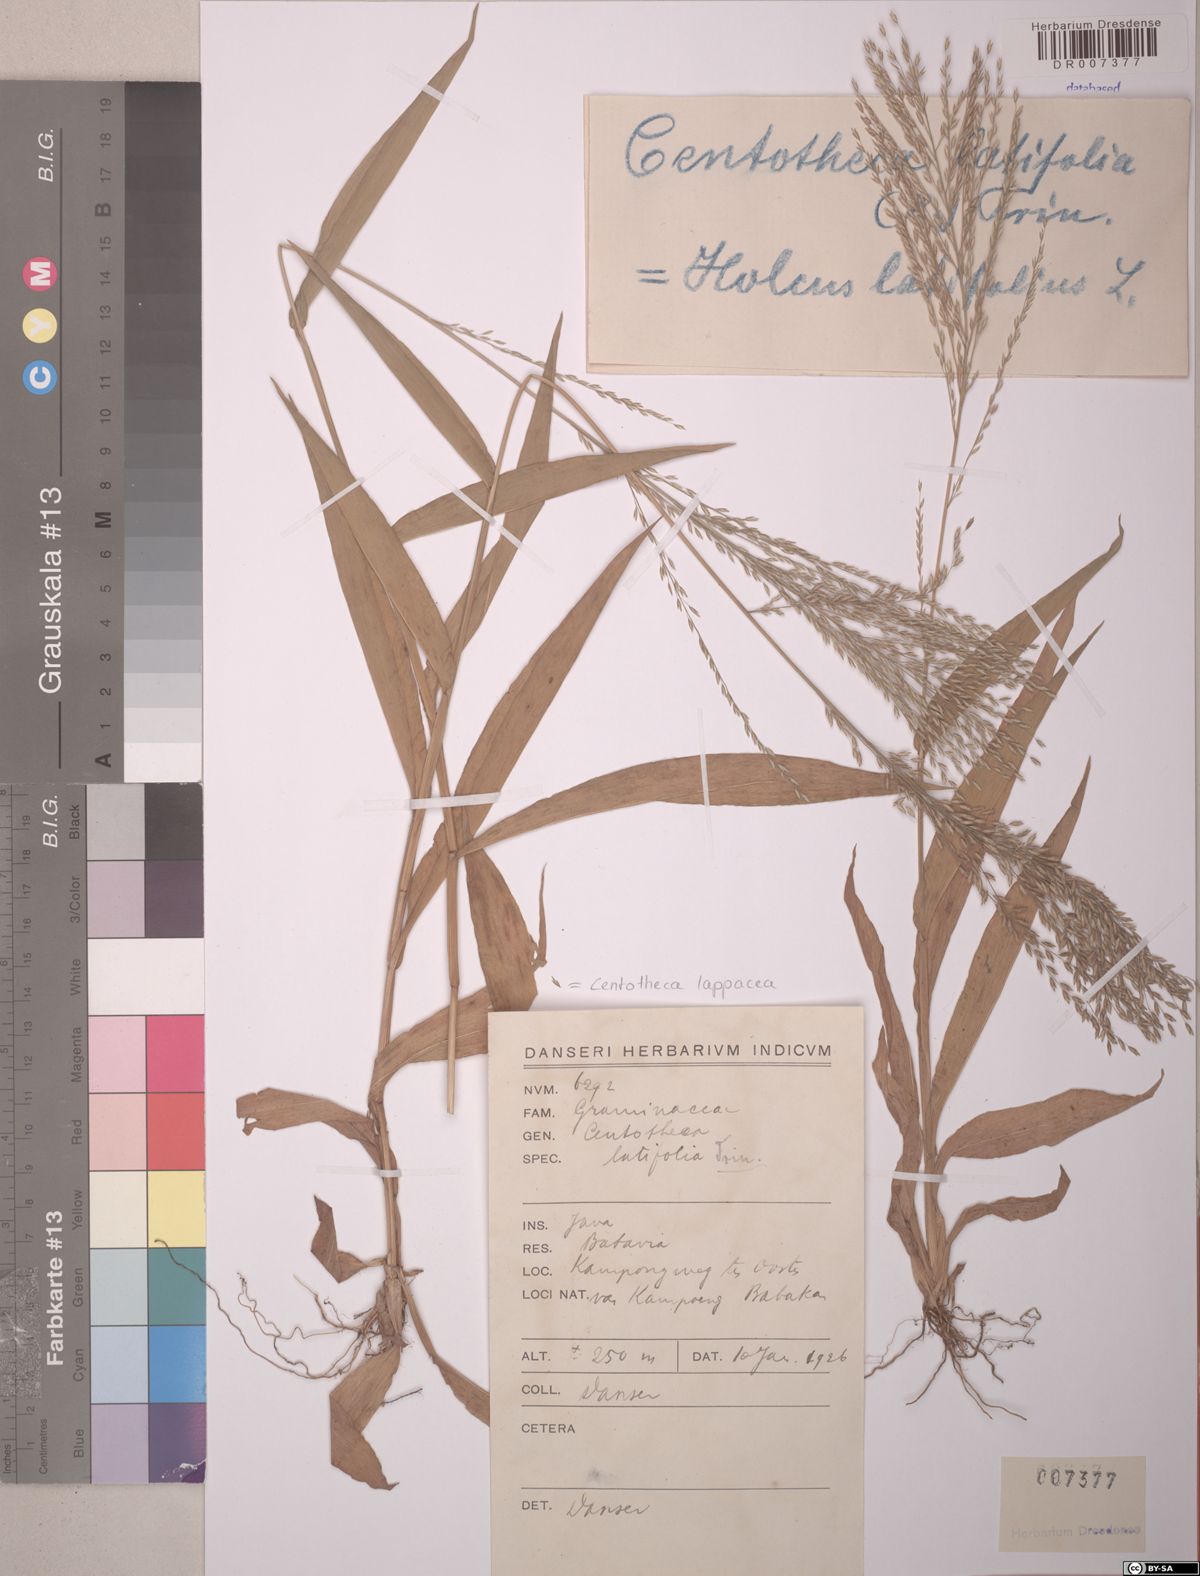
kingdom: Plantae
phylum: Tracheophyta
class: Liliopsida
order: Poales
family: Poaceae
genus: Centotheca
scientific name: Centotheca lappacea
